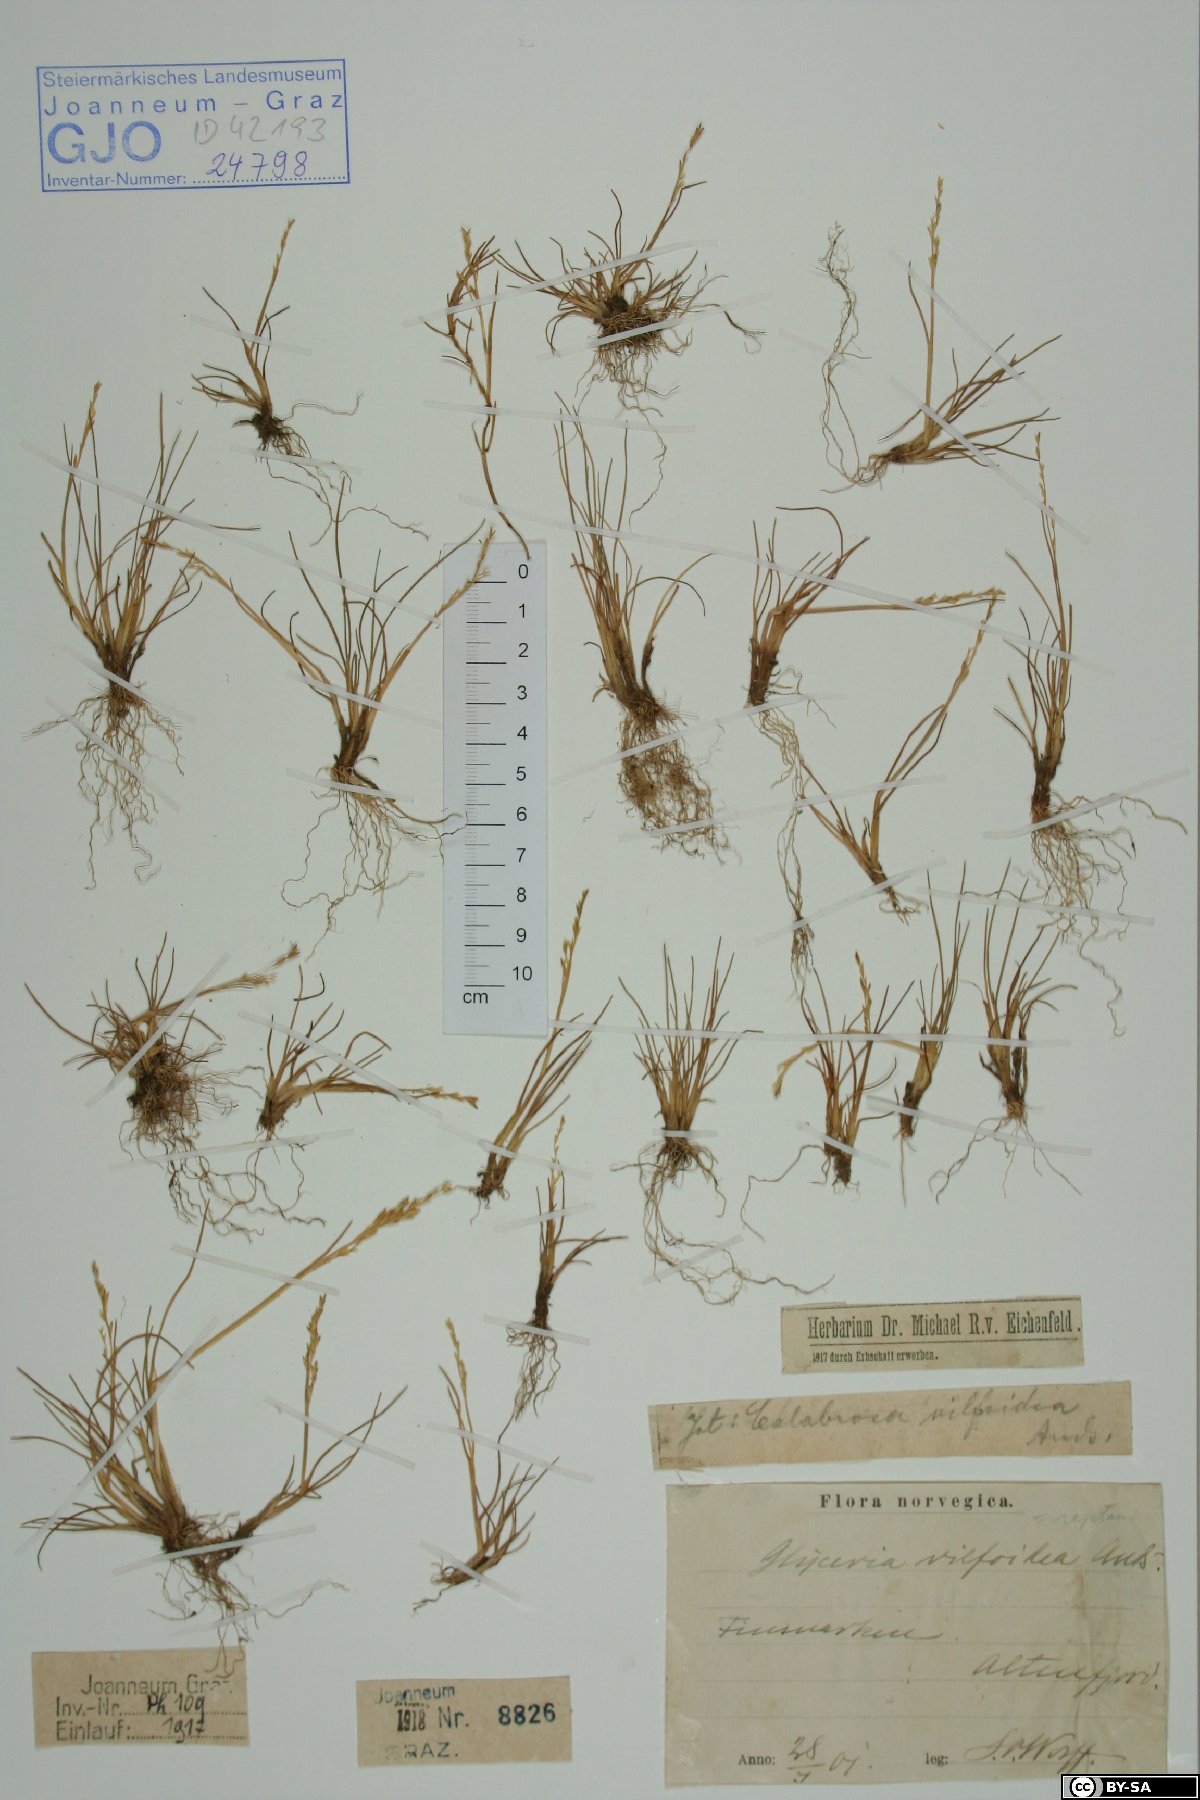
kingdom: Plantae
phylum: Tracheophyta
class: Liliopsida
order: Poales
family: Poaceae
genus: Puccinellia
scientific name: Puccinellia phryganodes
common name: Creeping alkaligrass
